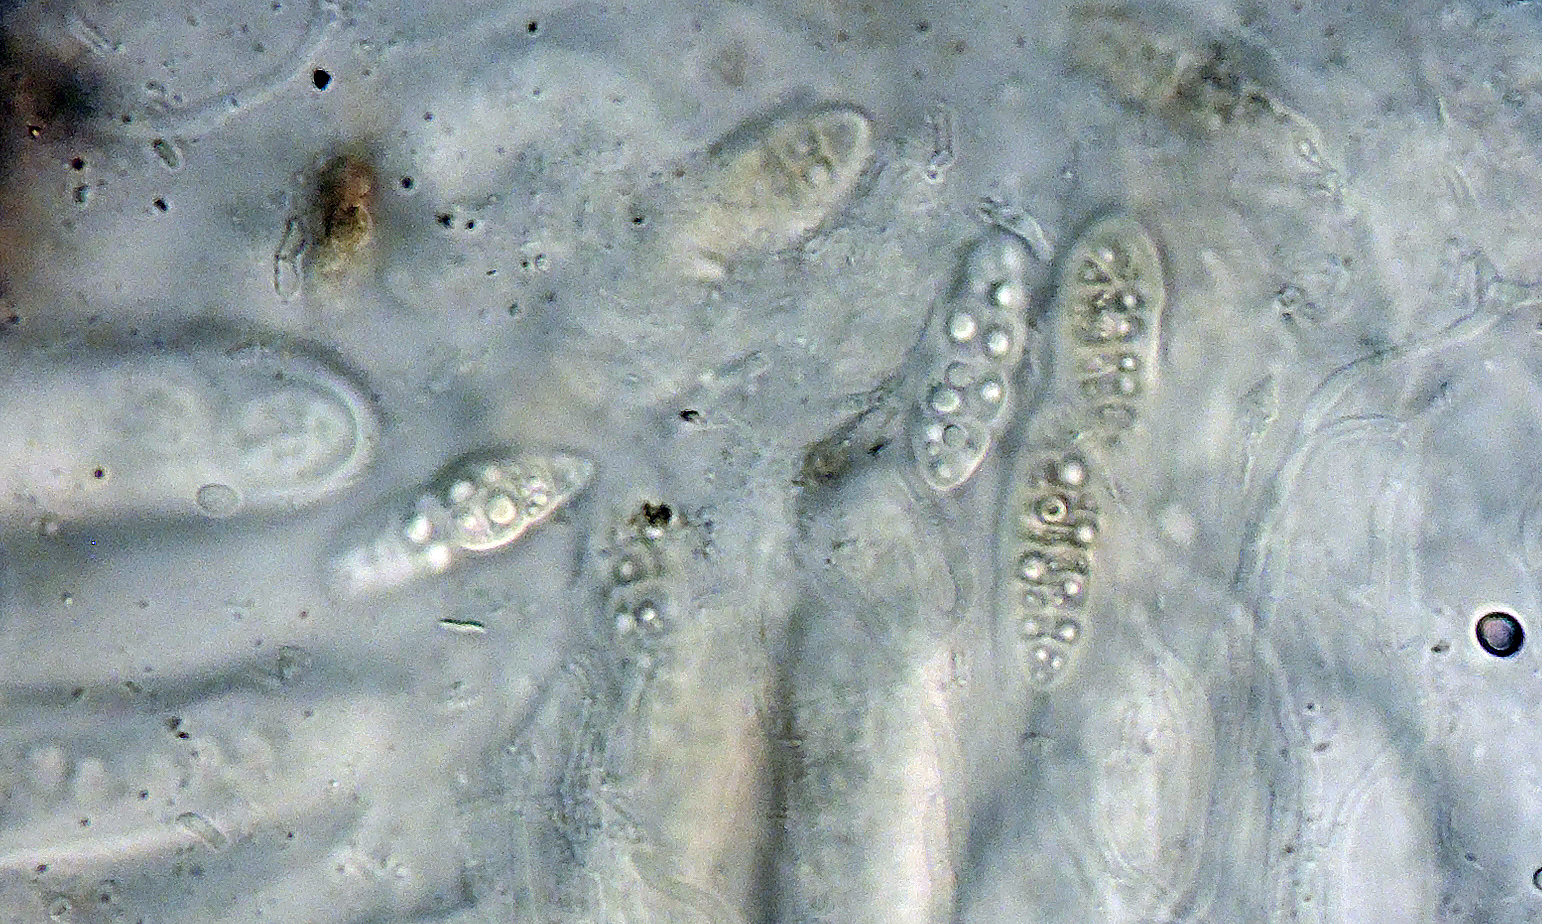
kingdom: Fungi
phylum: Ascomycota
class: Dothideomycetes
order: Hysteriales
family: Hysteriaceae
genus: Hysterobrevium
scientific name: Hysterobrevium smilacis
